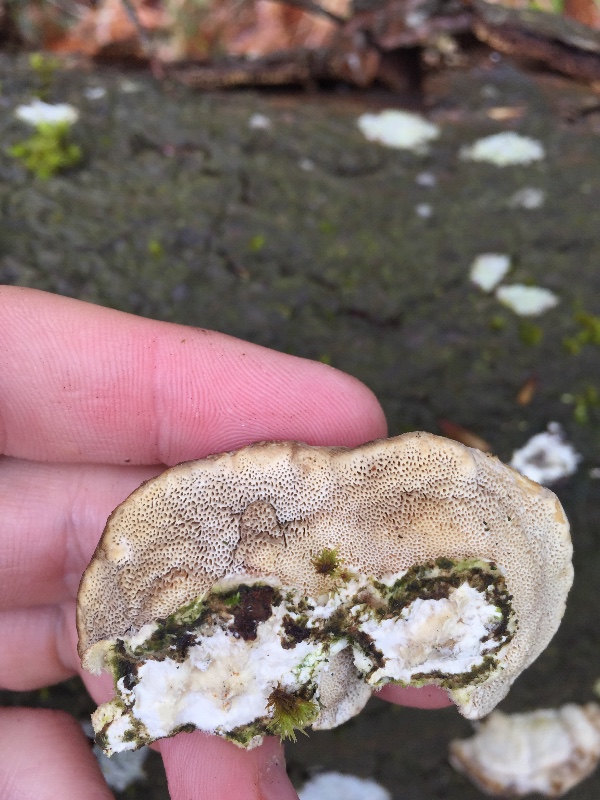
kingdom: Fungi
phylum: Basidiomycota
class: Agaricomycetes
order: Polyporales
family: Polyporaceae
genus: Trametes
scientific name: Trametes hirsuta
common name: håret læderporesvamp
